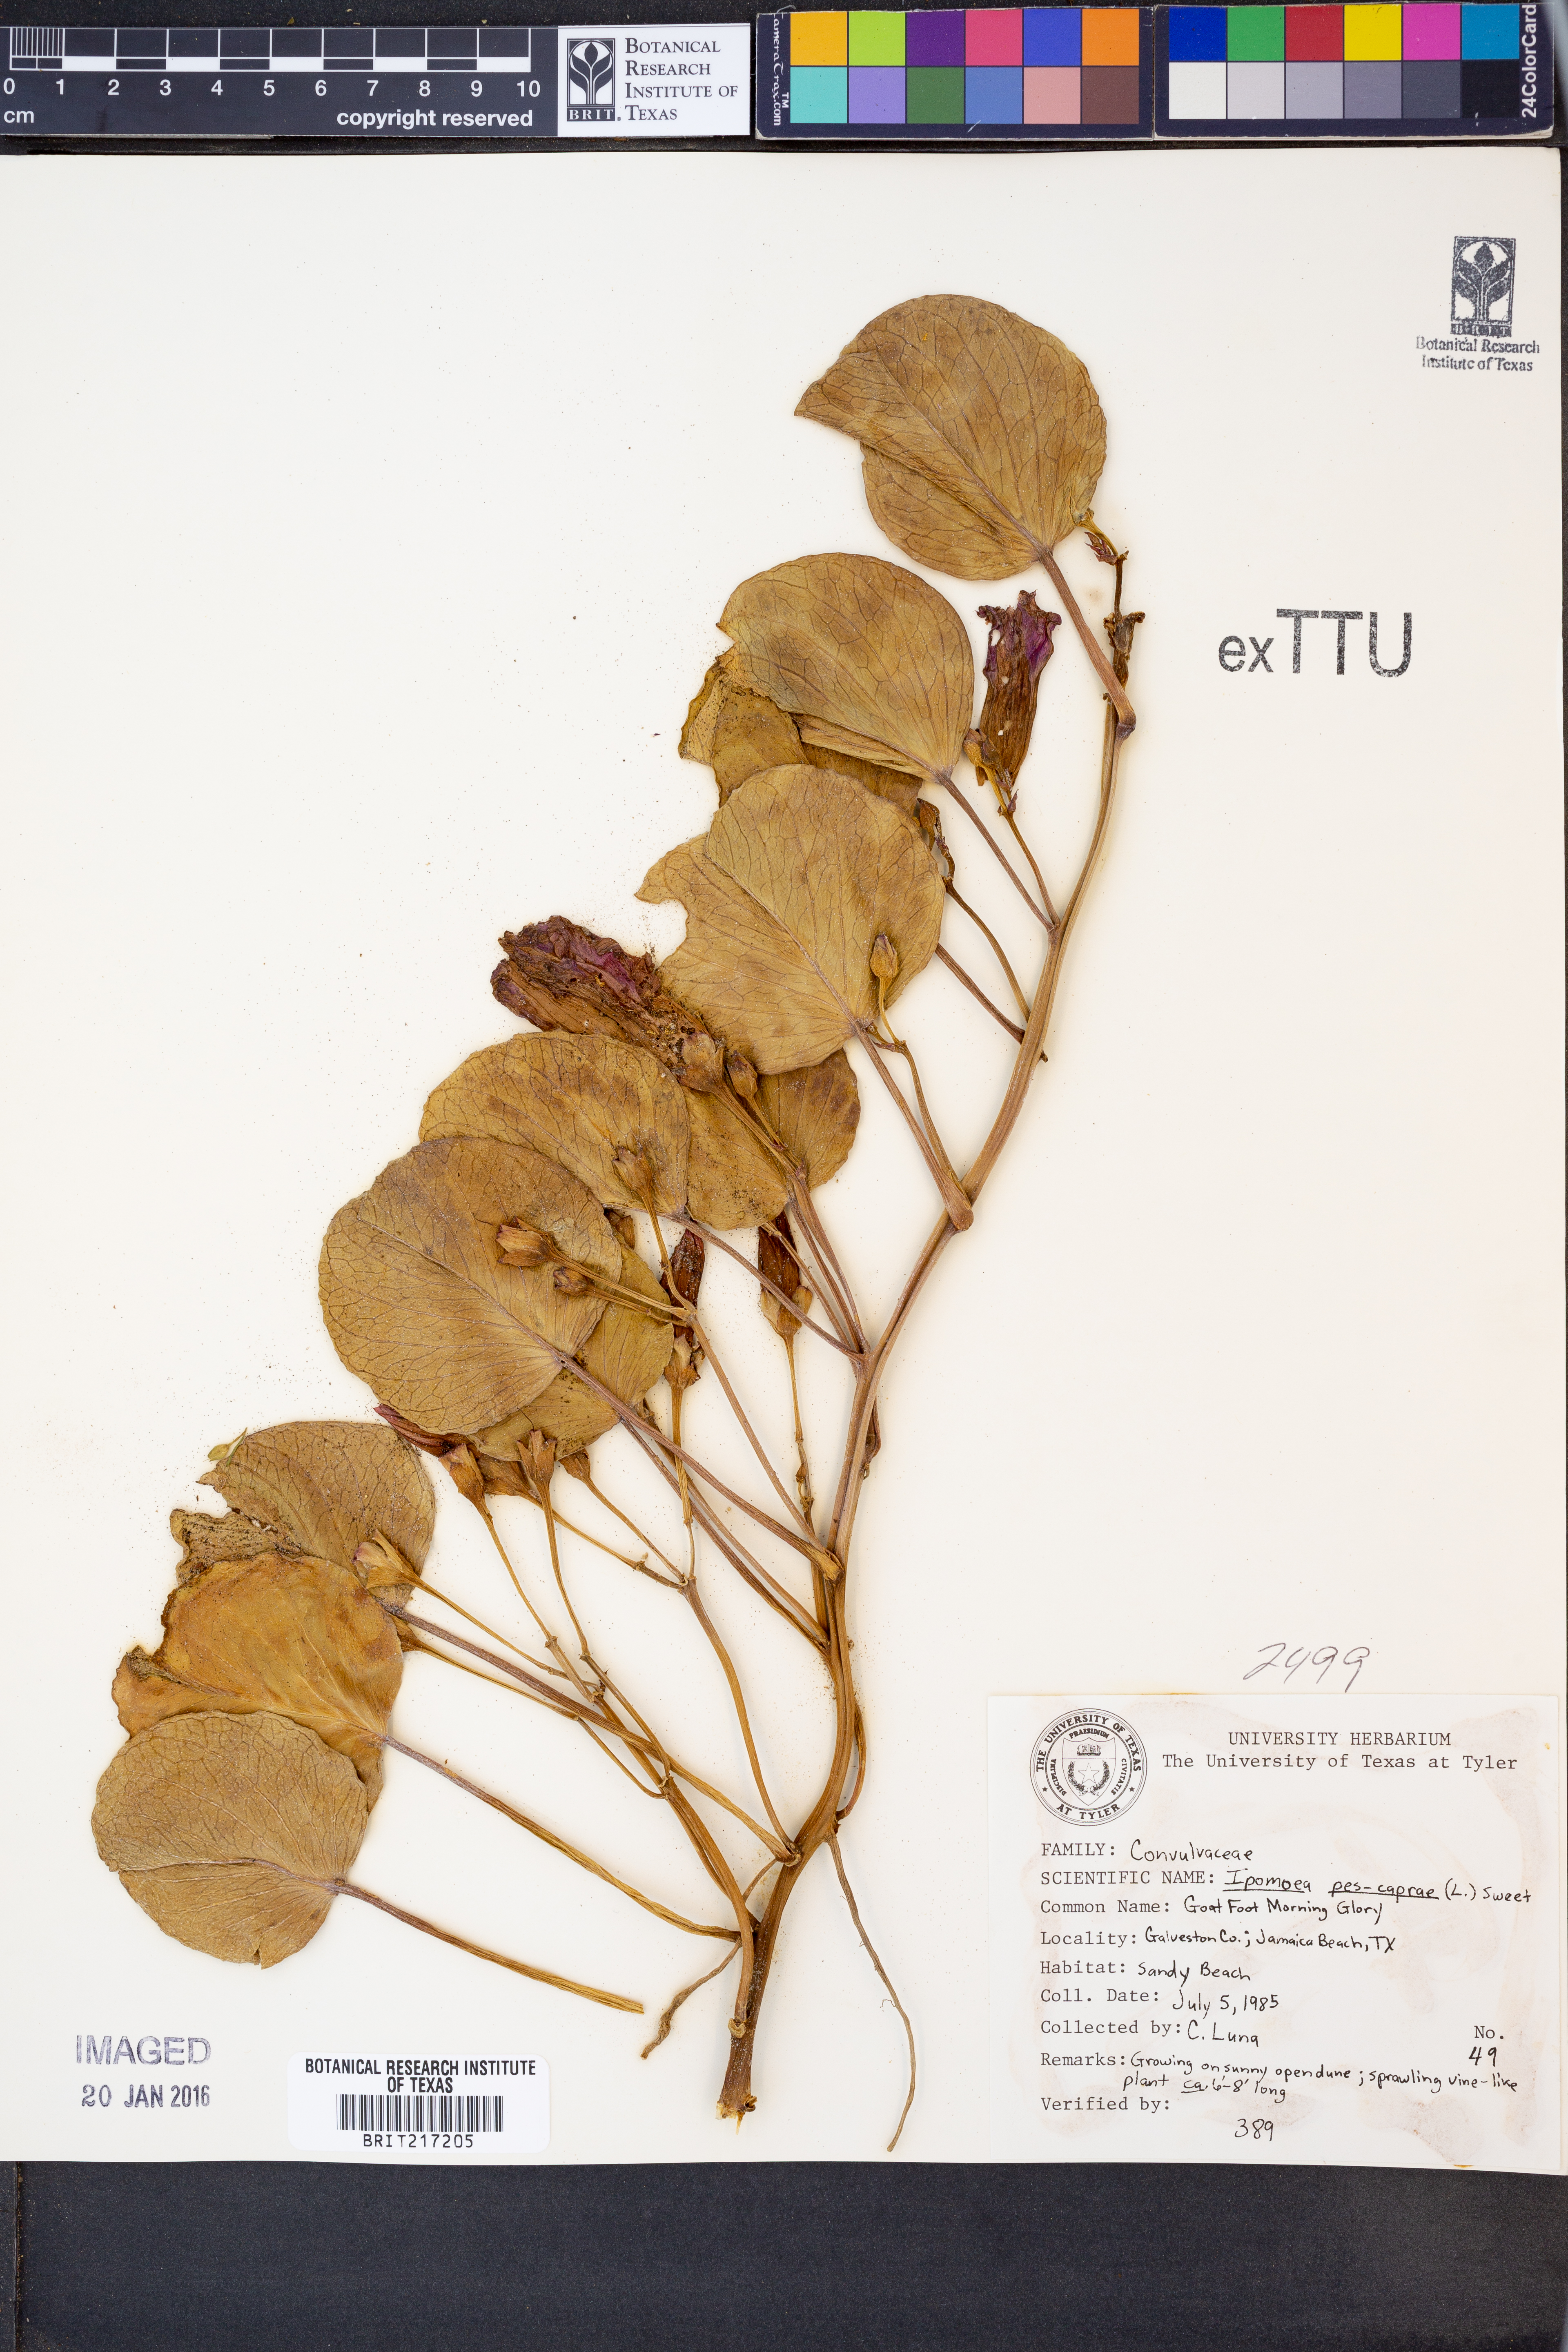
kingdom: Plantae
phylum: Tracheophyta
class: Magnoliopsida
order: Solanales
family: Convolvulaceae
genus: Ipomoea
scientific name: Ipomoea pes-caprae
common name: Beach morning glory
